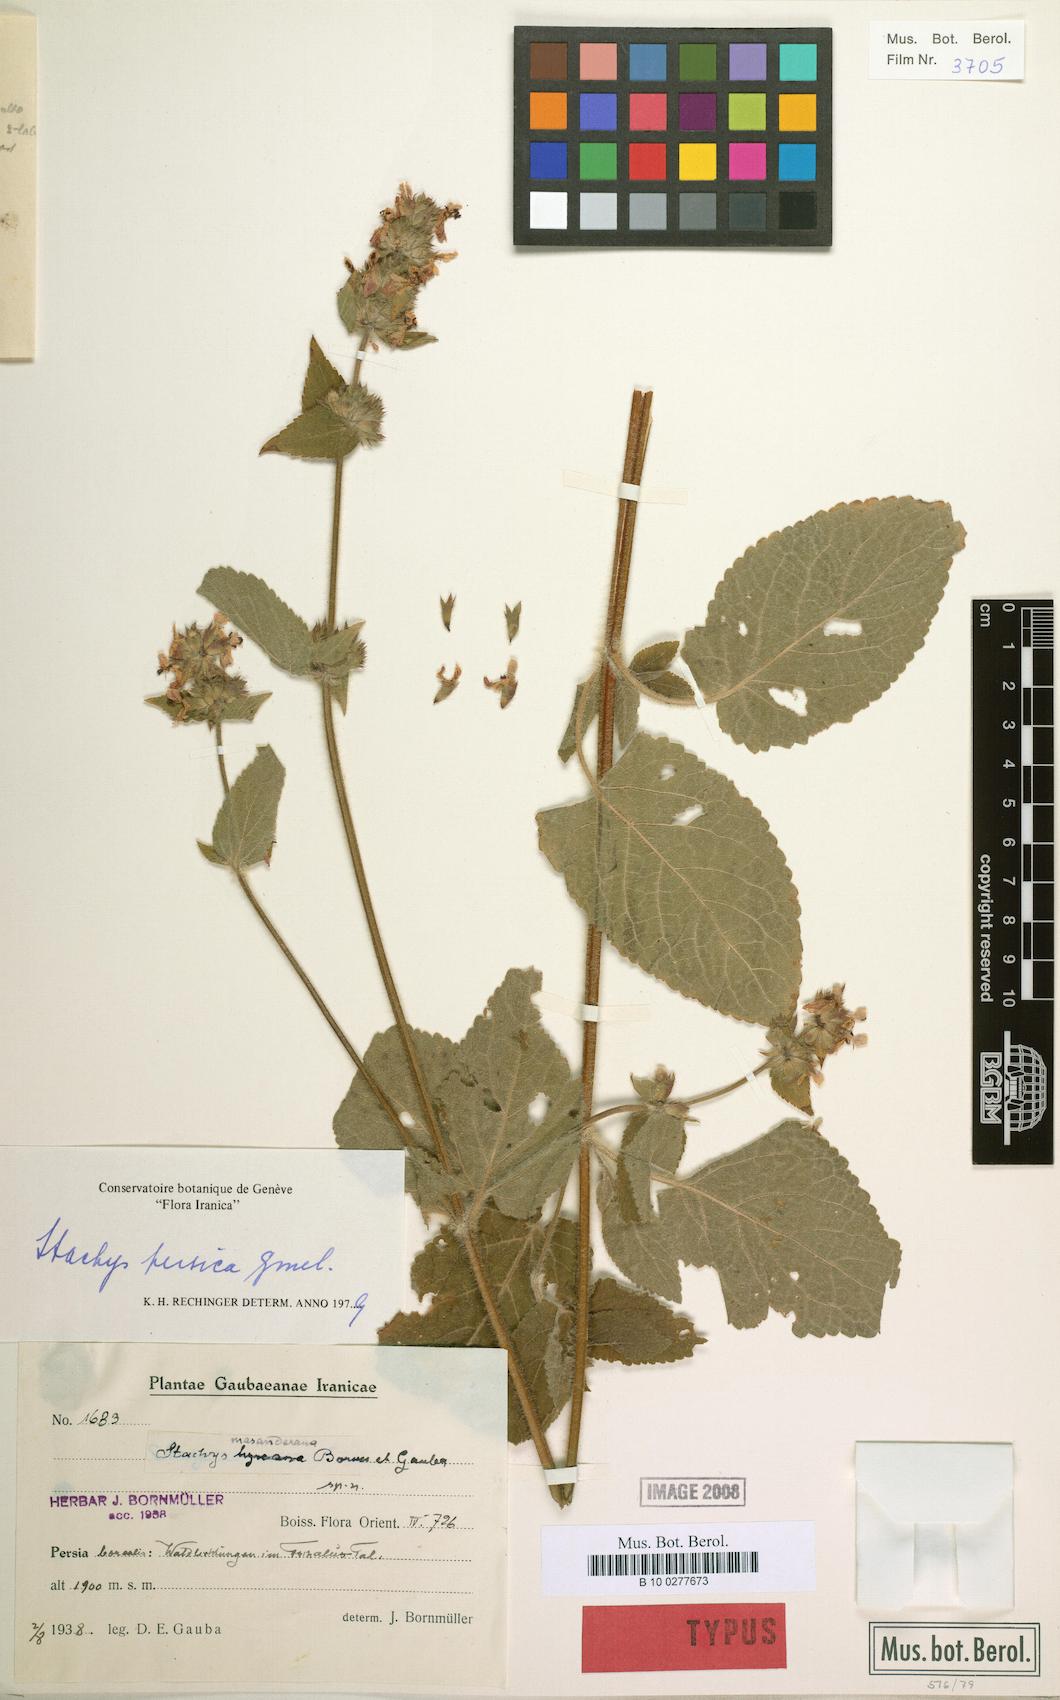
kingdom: Plantae
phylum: Tracheophyta
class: Magnoliopsida
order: Lamiales
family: Lamiaceae
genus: Stachys
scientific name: Stachys alpina
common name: Limestone woundwort
